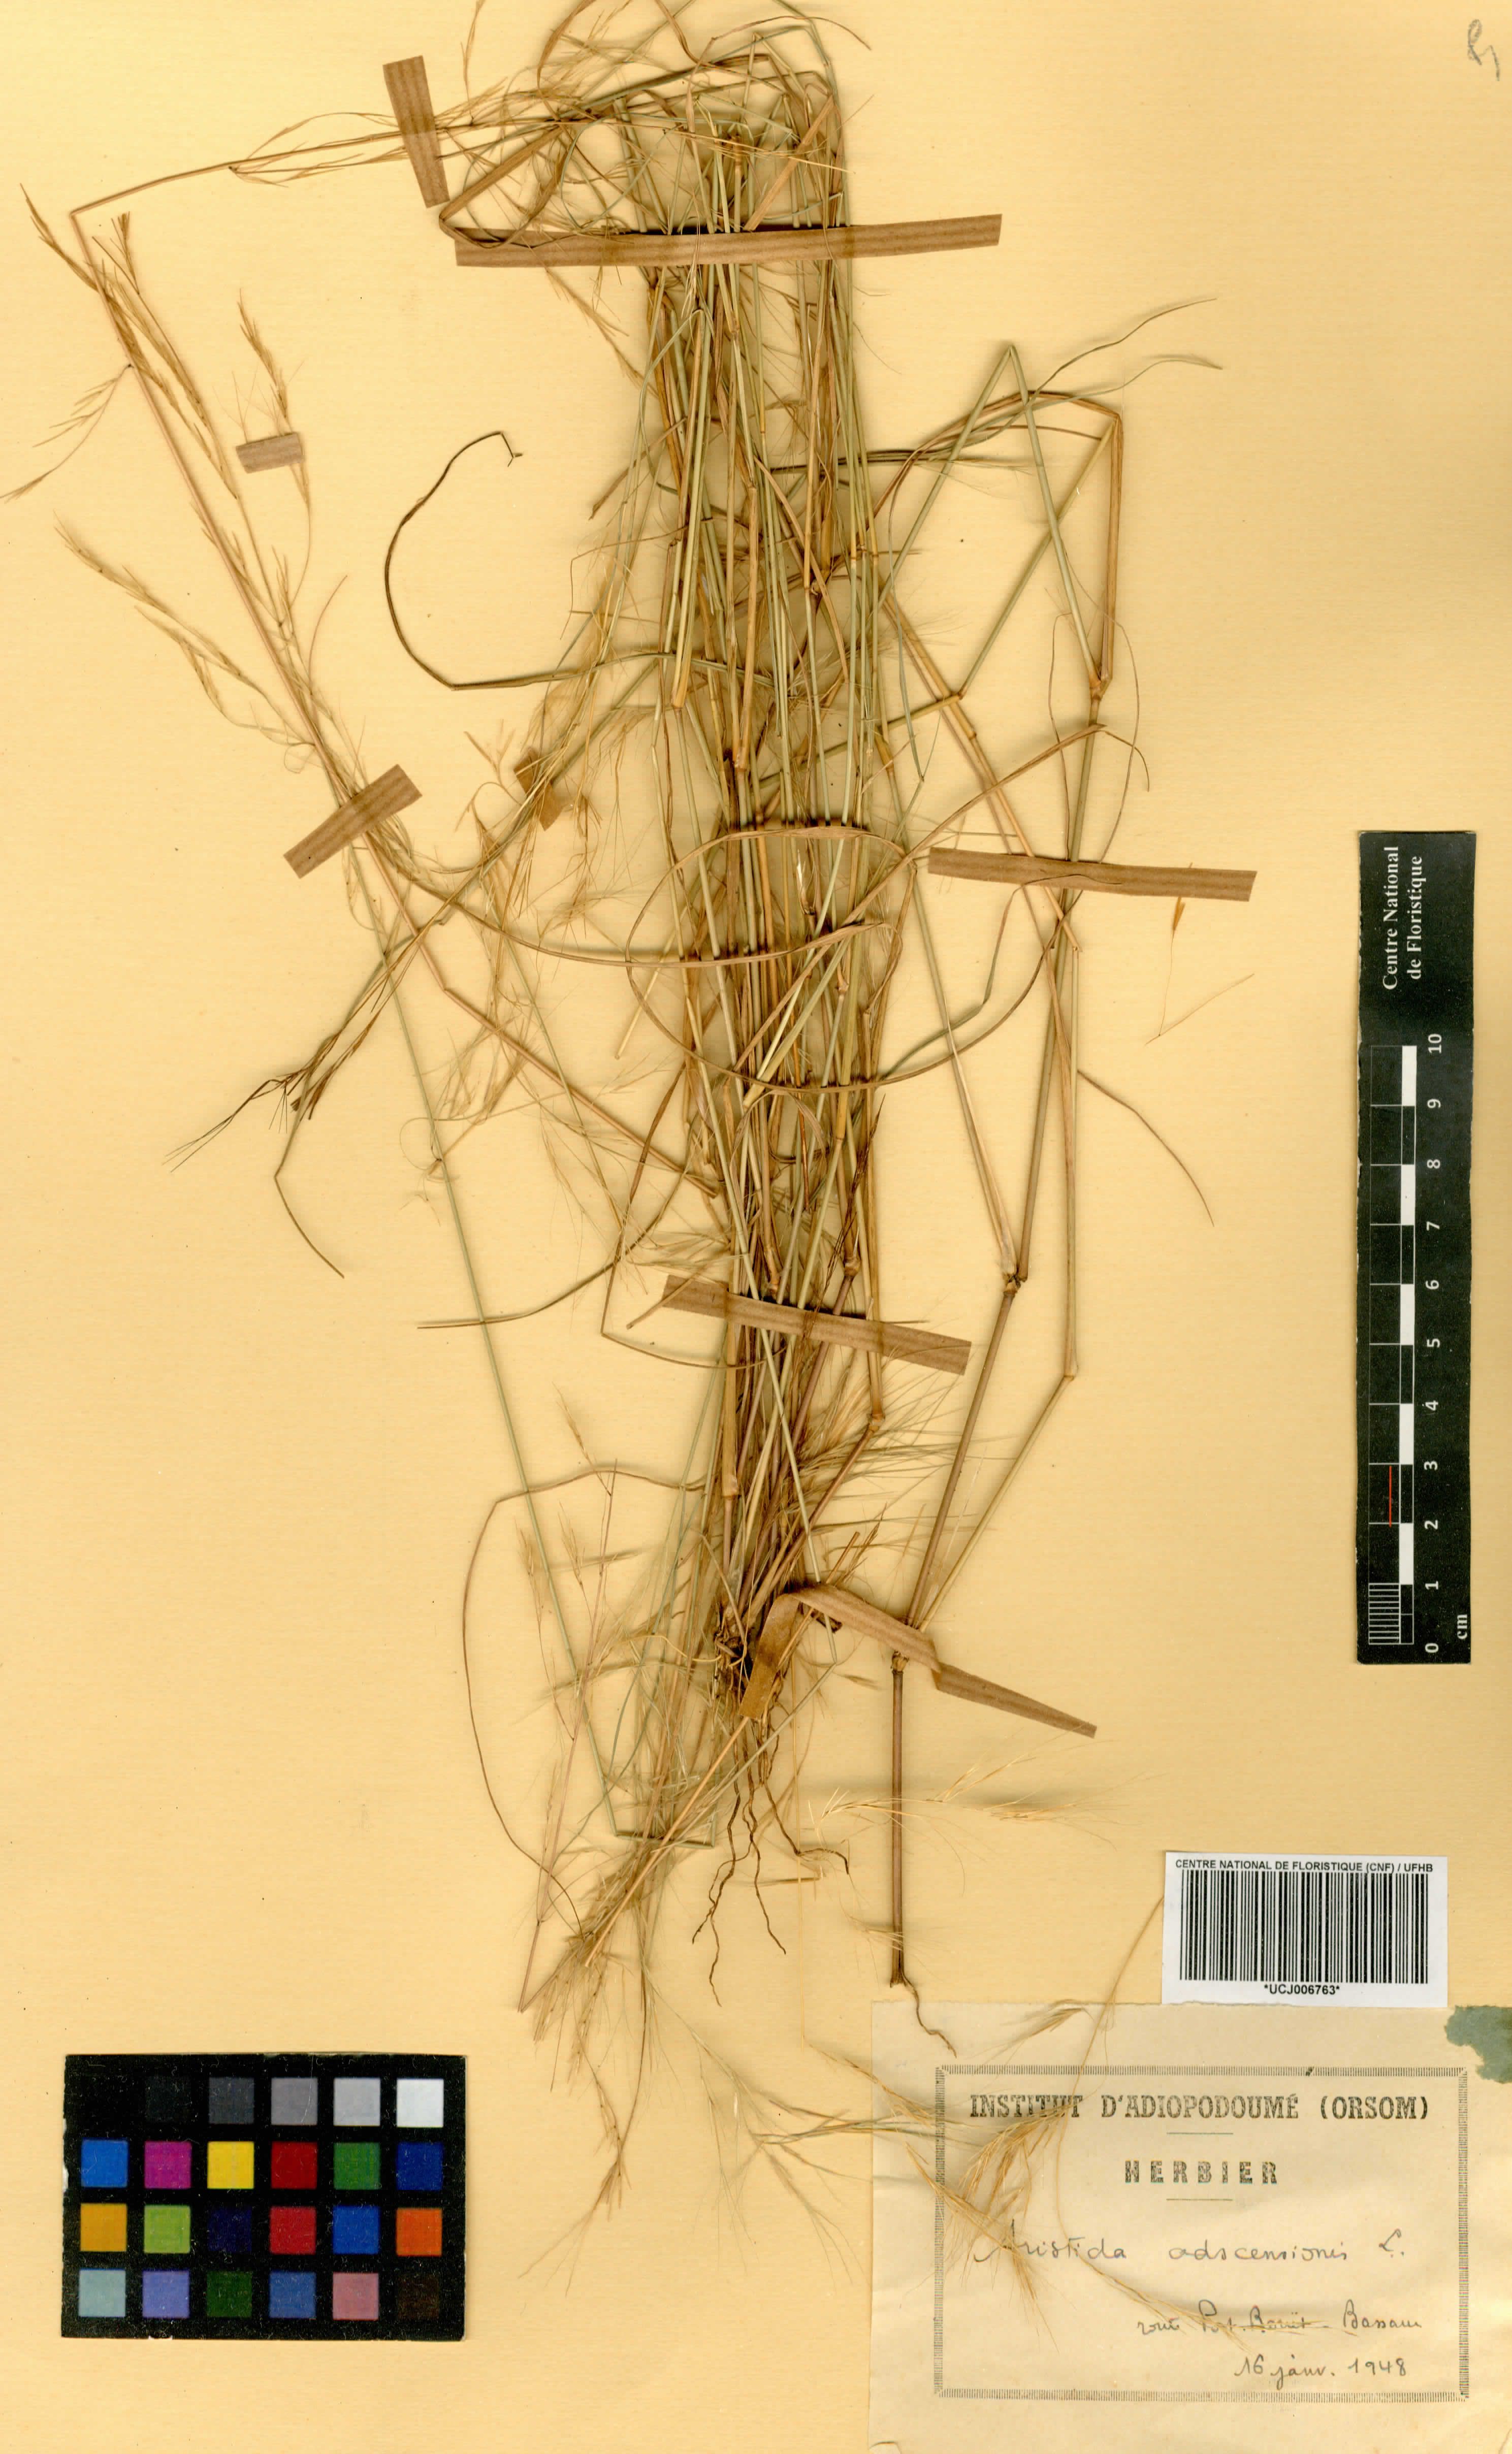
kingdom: Plantae
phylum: Tracheophyta
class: Liliopsida
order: Poales
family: Poaceae
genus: Aristida
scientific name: Aristida adscensionis
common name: Sixweeks threeawn
